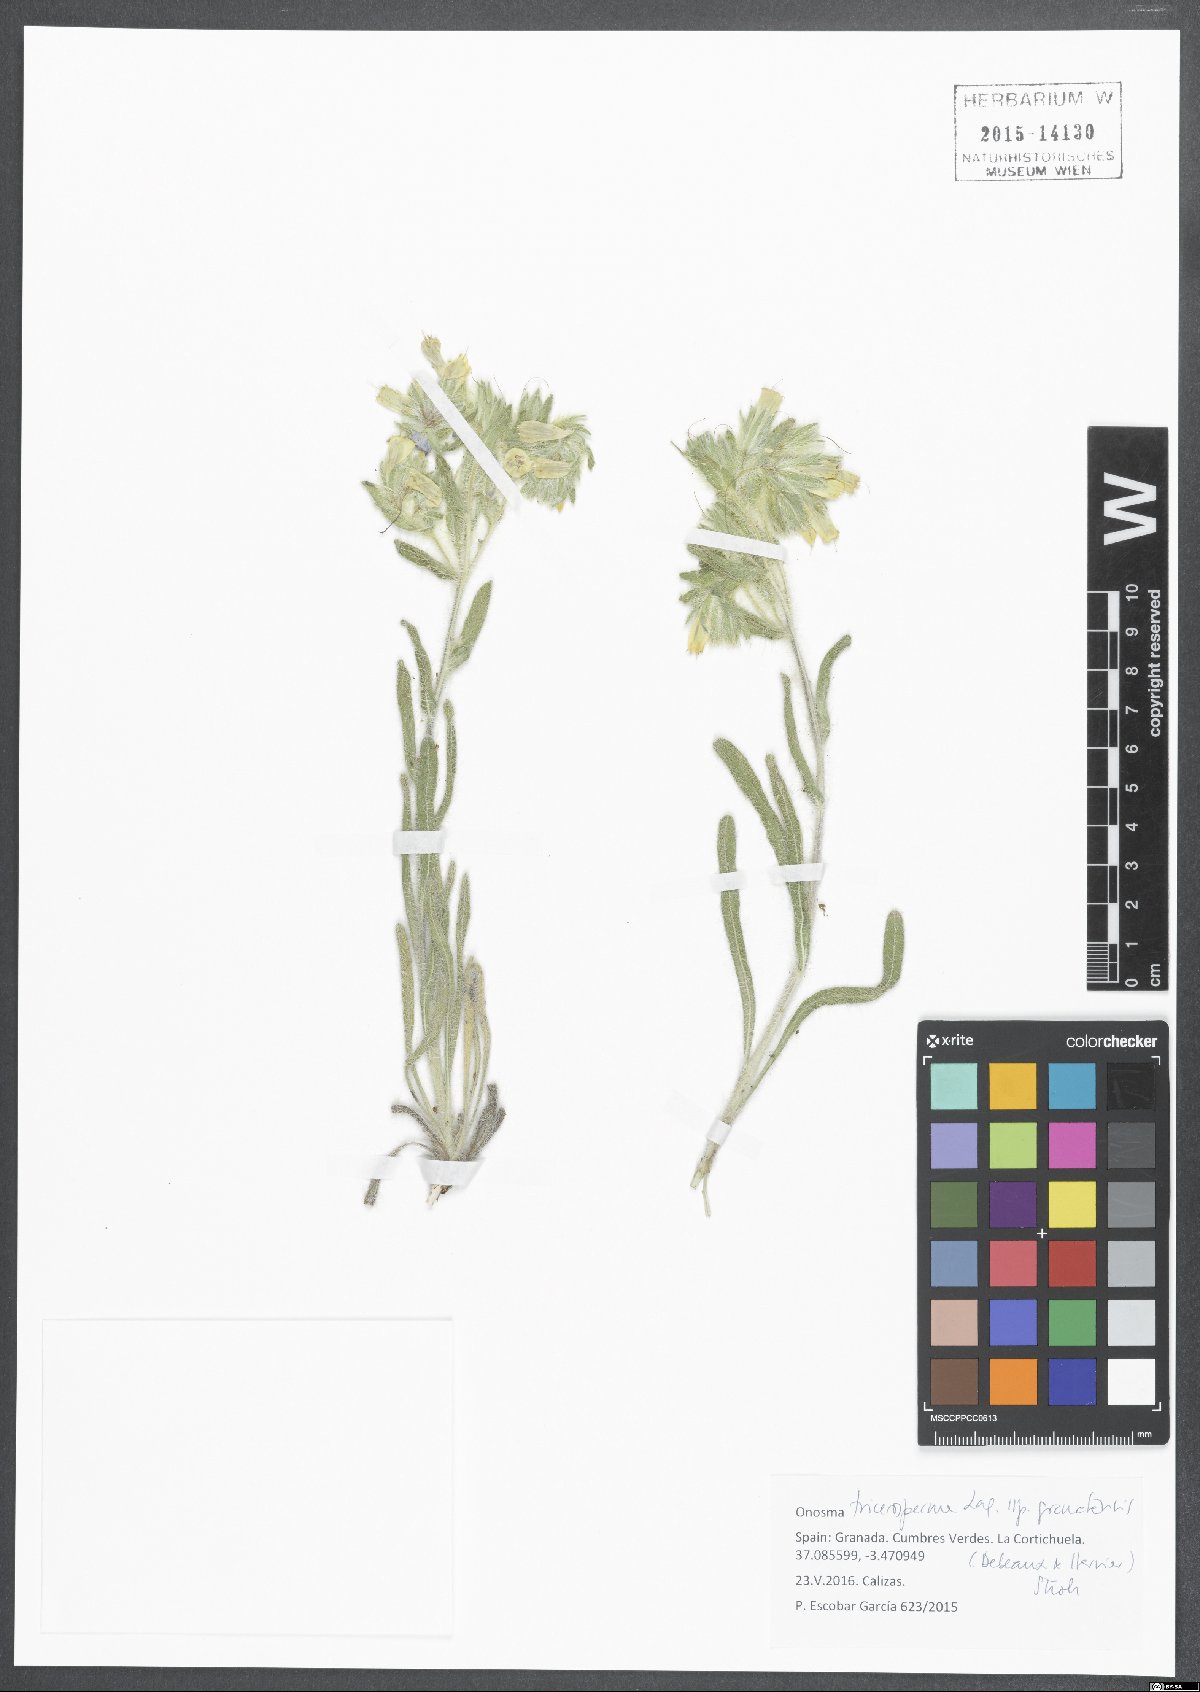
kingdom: Plantae
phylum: Tracheophyta
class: Magnoliopsida
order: Boraginales
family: Boraginaceae
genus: Onosma
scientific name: Onosma tricerosperma
